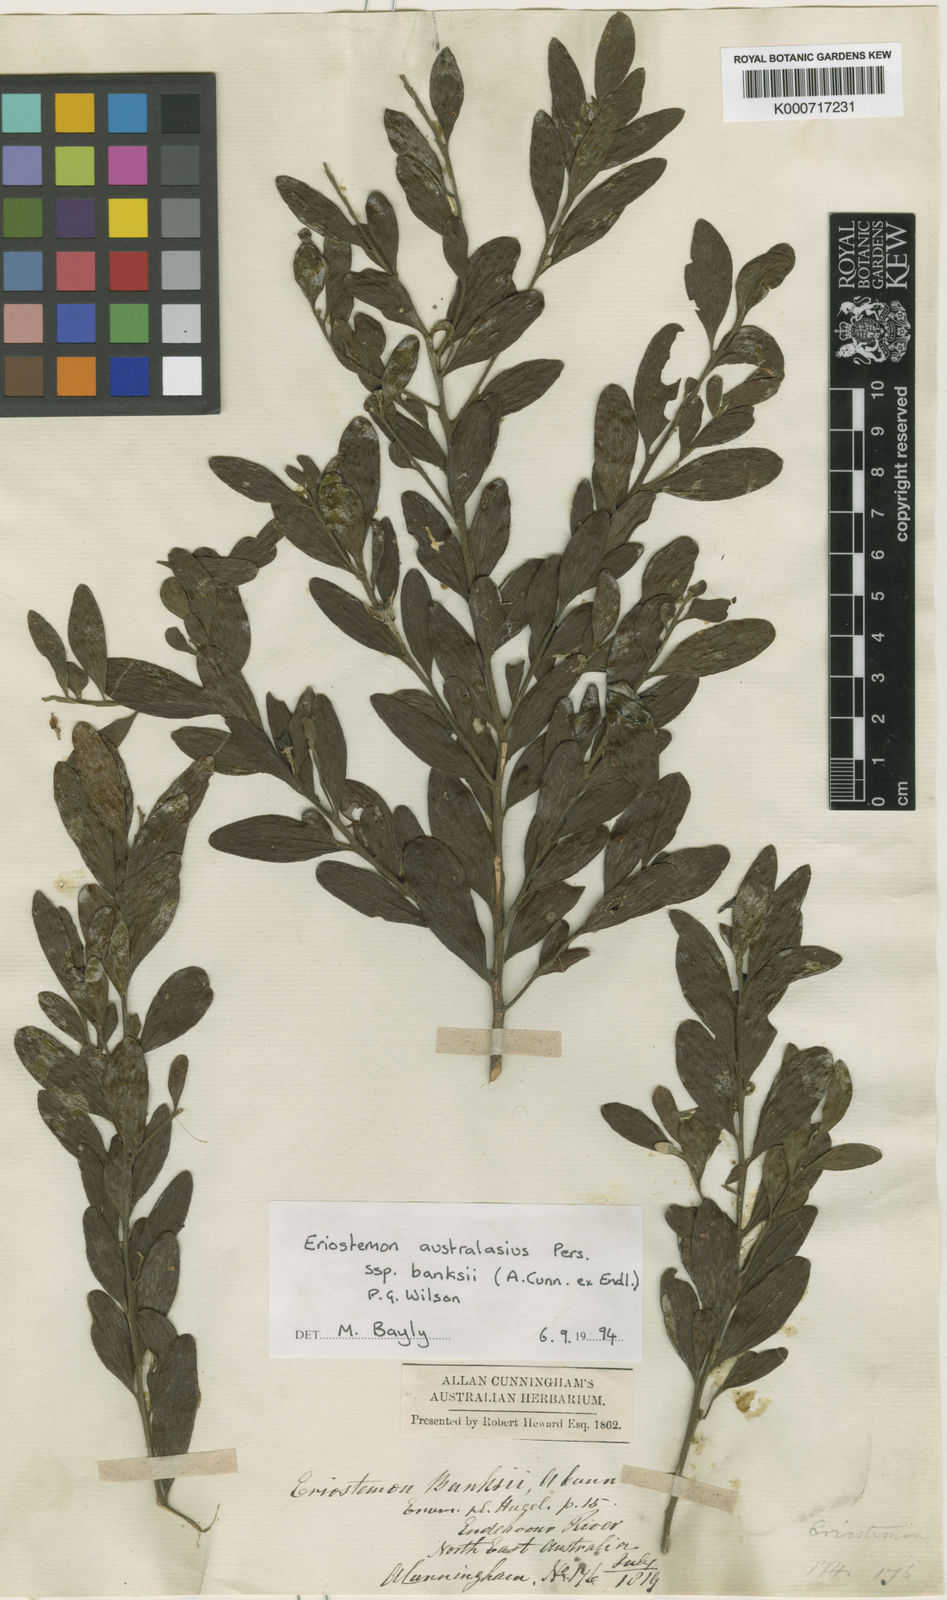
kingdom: Plantae
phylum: Tracheophyta
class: Magnoliopsida
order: Sapindales
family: Rutaceae
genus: Eriostemon
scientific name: Eriostemon banksii
